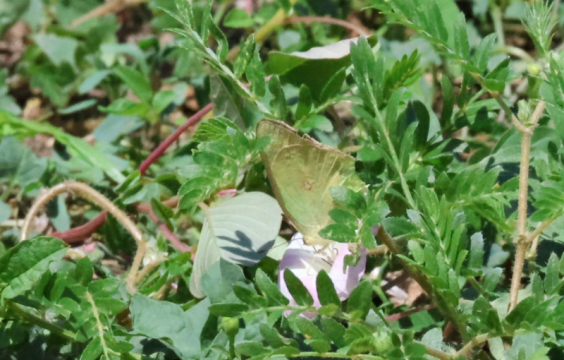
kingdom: Animalia
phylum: Arthropoda
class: Insecta
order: Lepidoptera
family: Pieridae
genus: Colias
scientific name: Colias eurytheme
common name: Orange Sulphur
